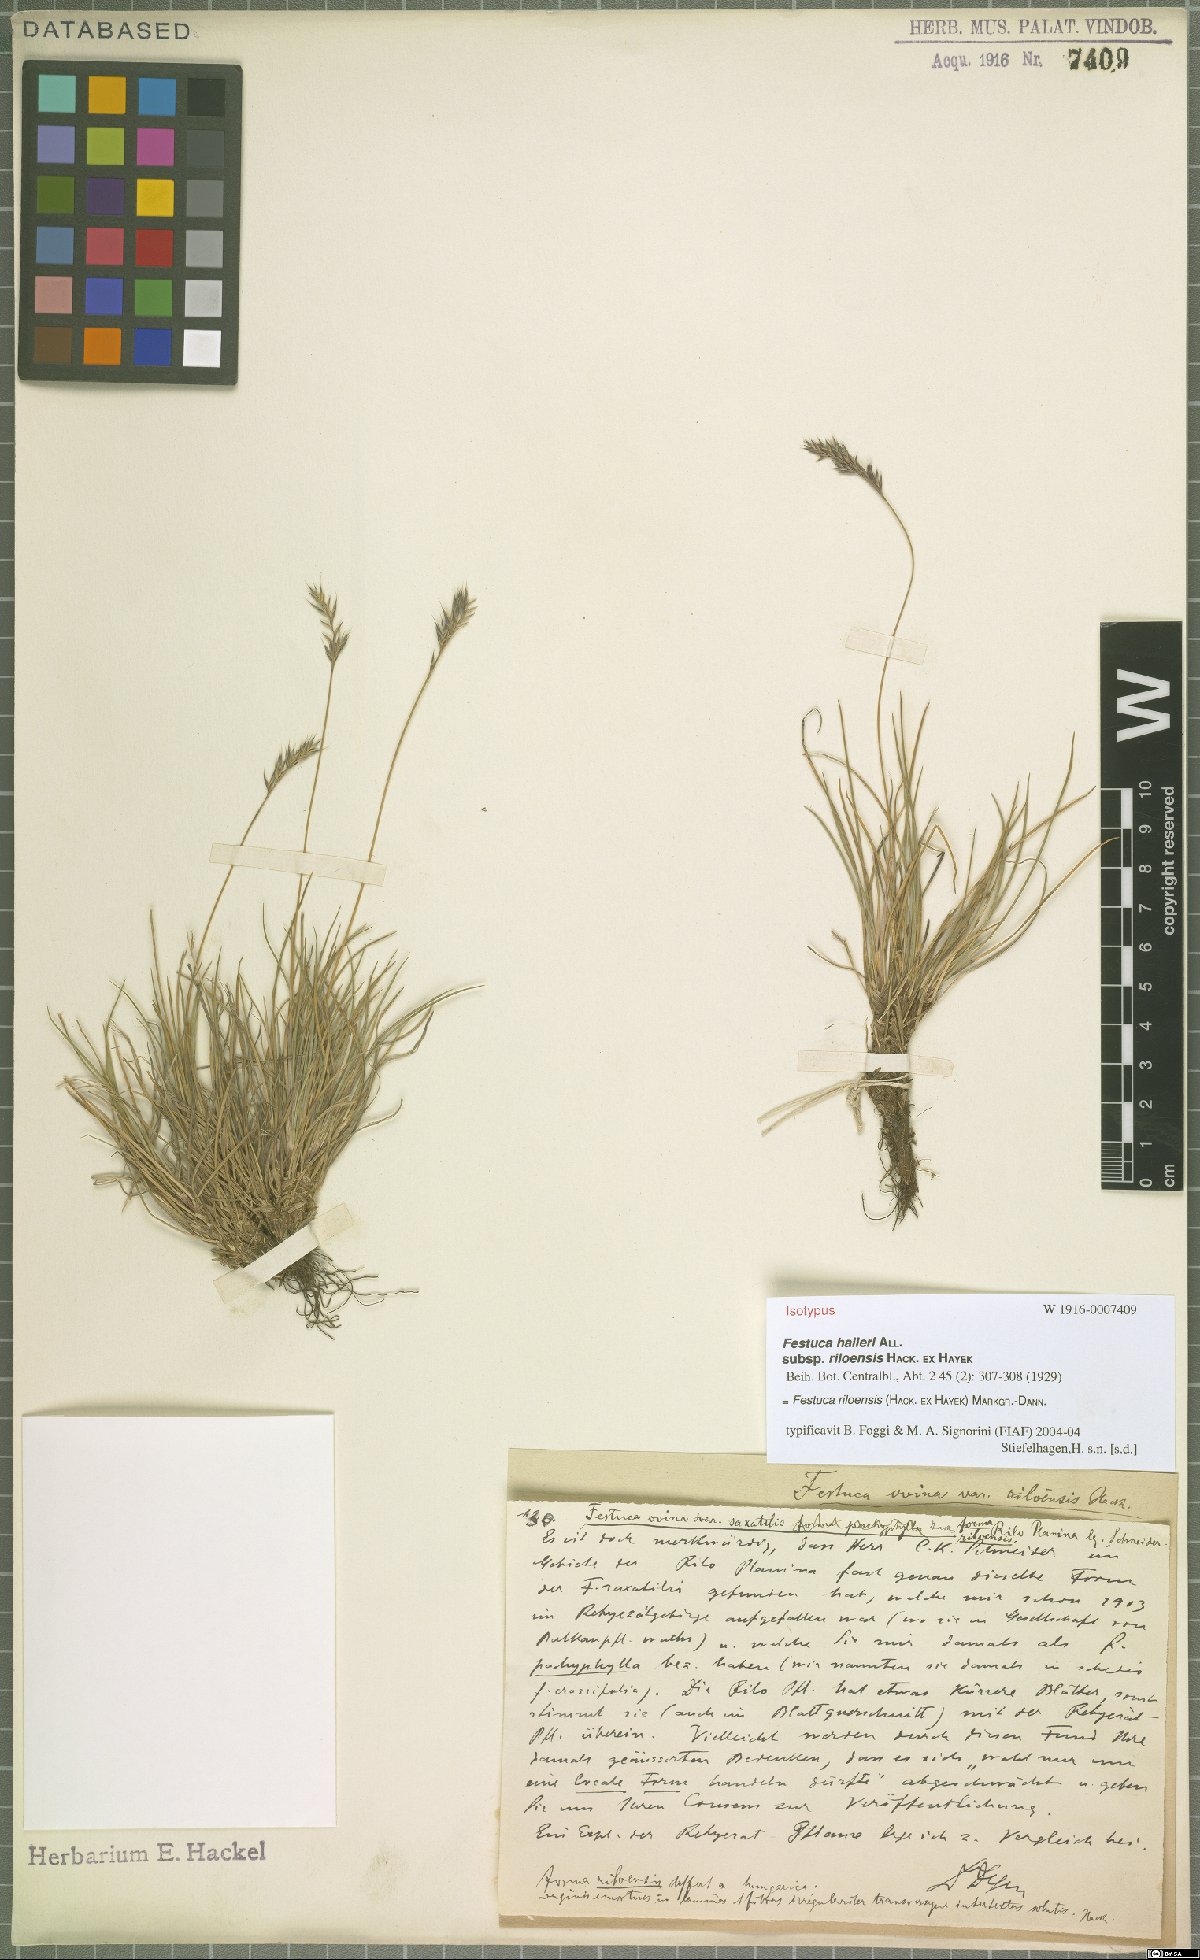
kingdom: Plantae
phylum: Tracheophyta
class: Liliopsida
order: Poales
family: Poaceae
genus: Festuca
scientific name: Festuca riloensis
